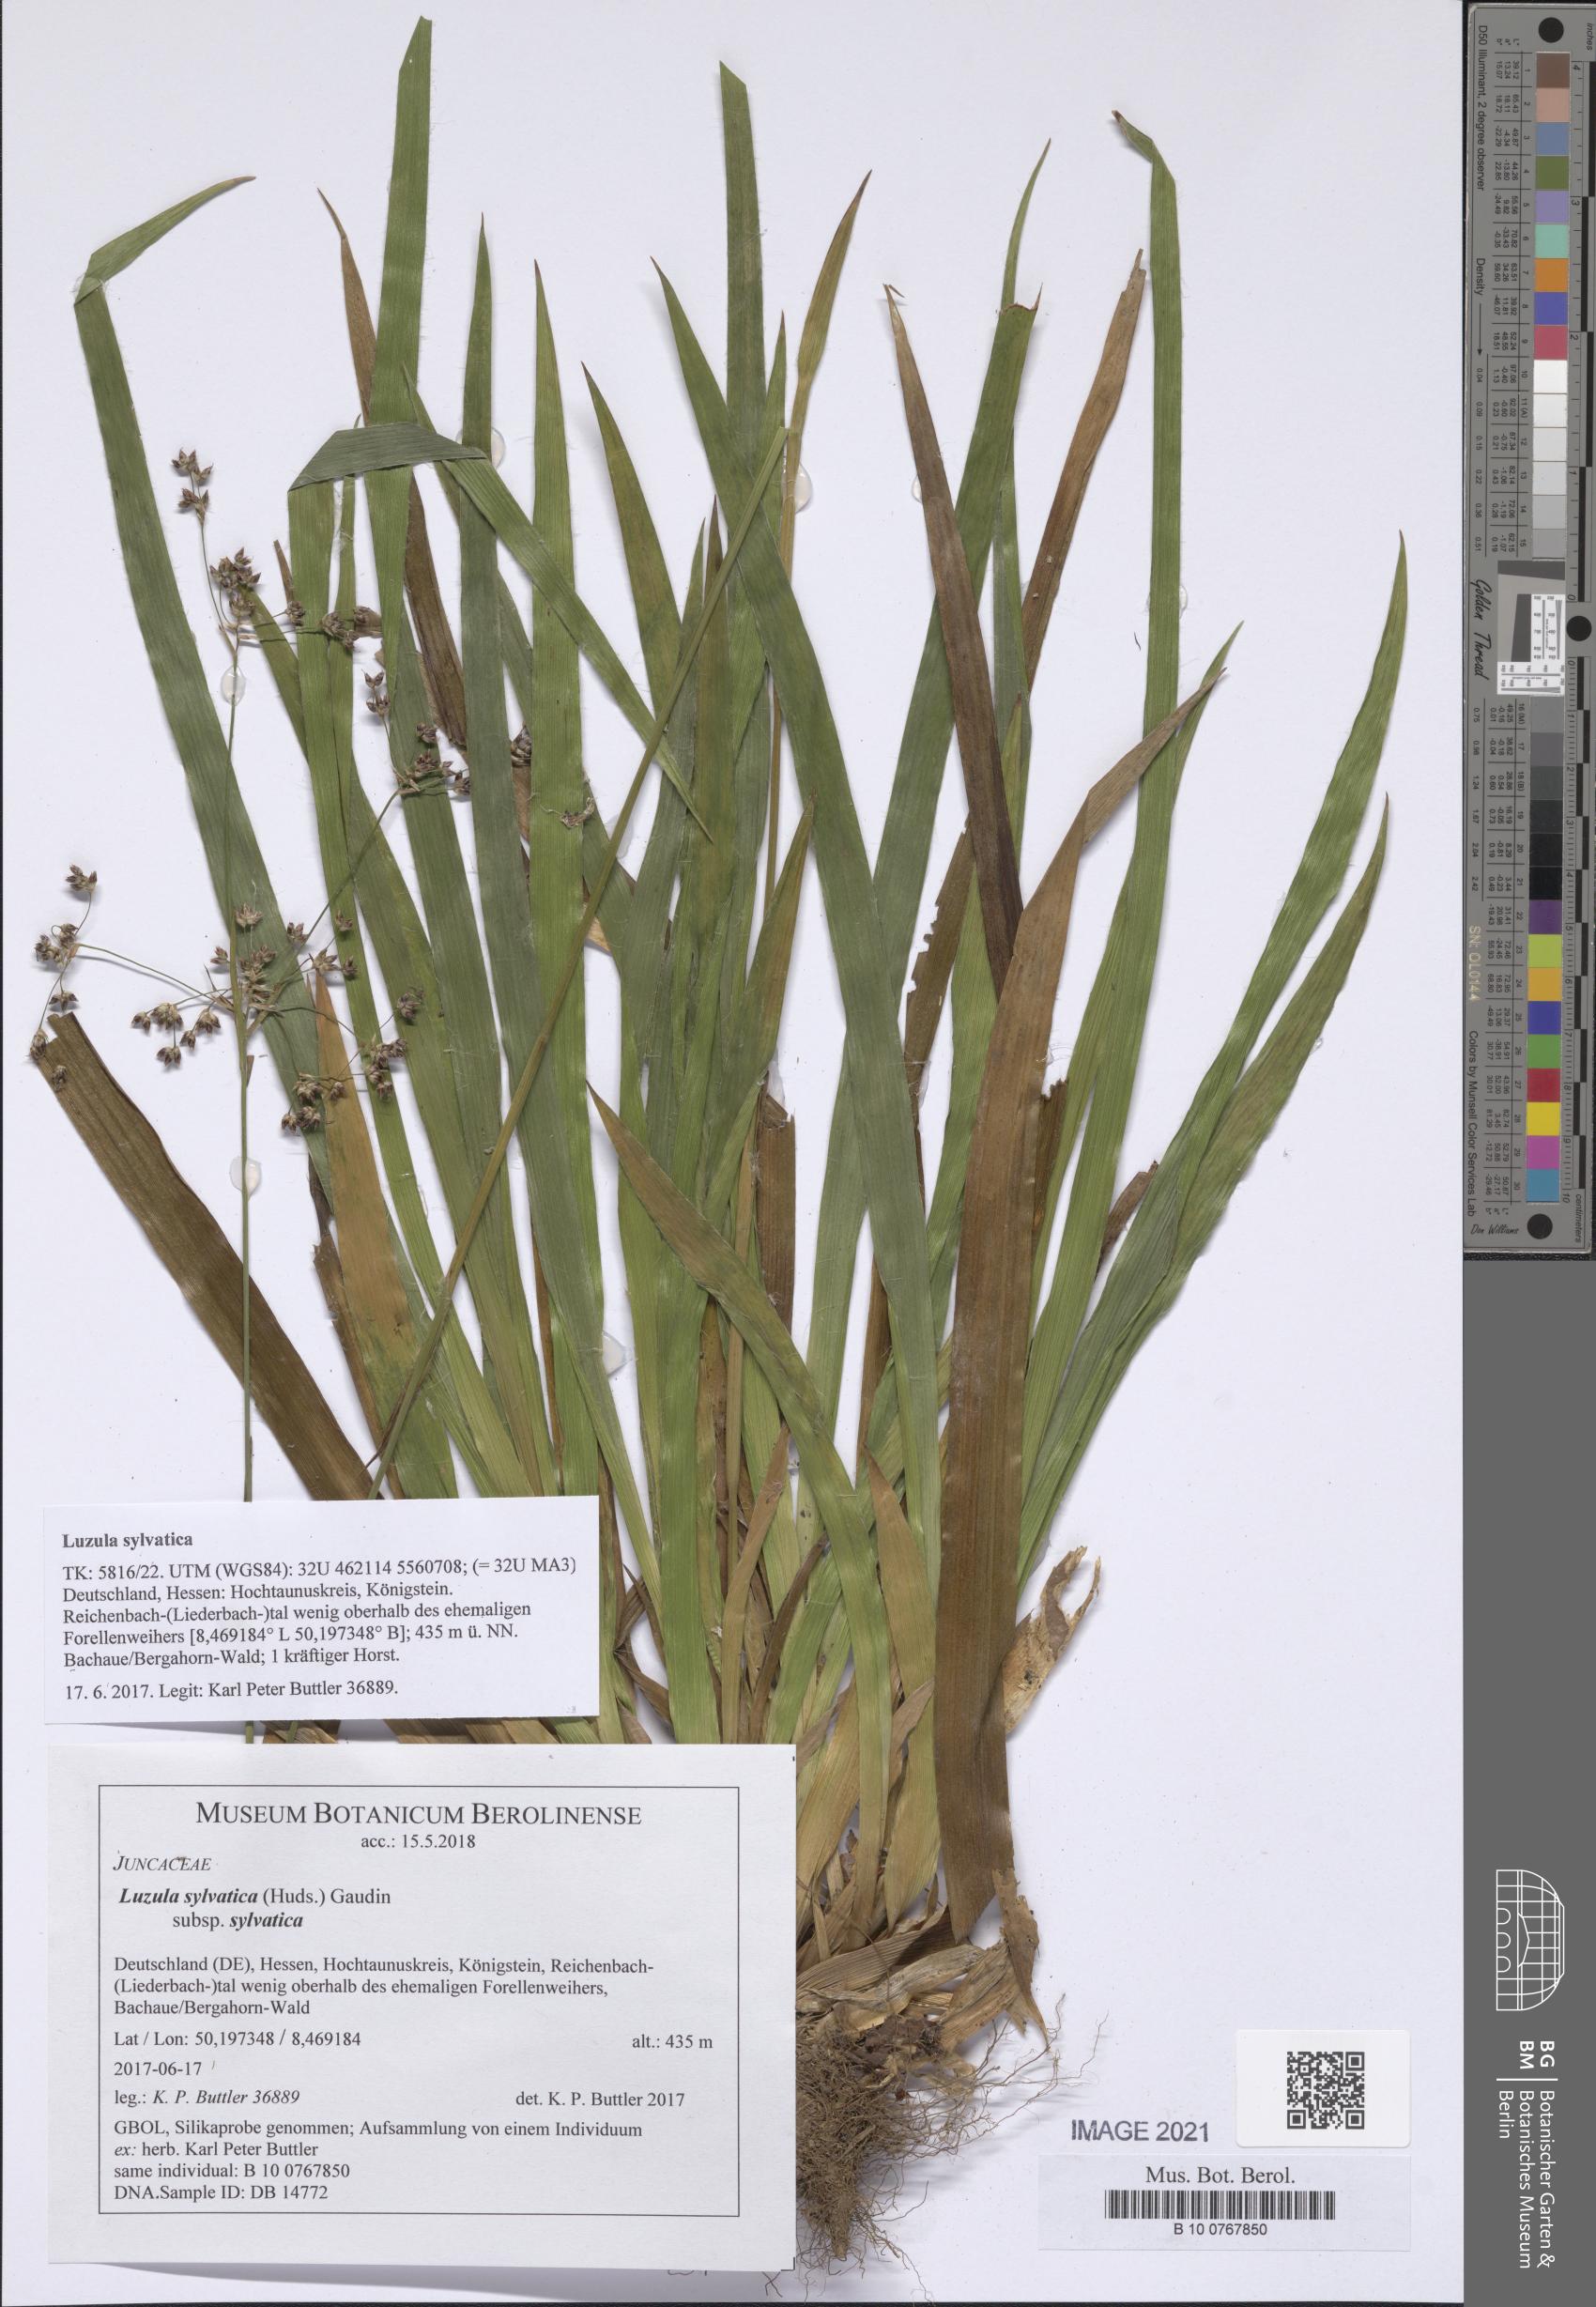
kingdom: Plantae
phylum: Tracheophyta
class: Liliopsida
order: Poales
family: Juncaceae
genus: Luzula
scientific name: Luzula sylvatica
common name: Great wood-rush
